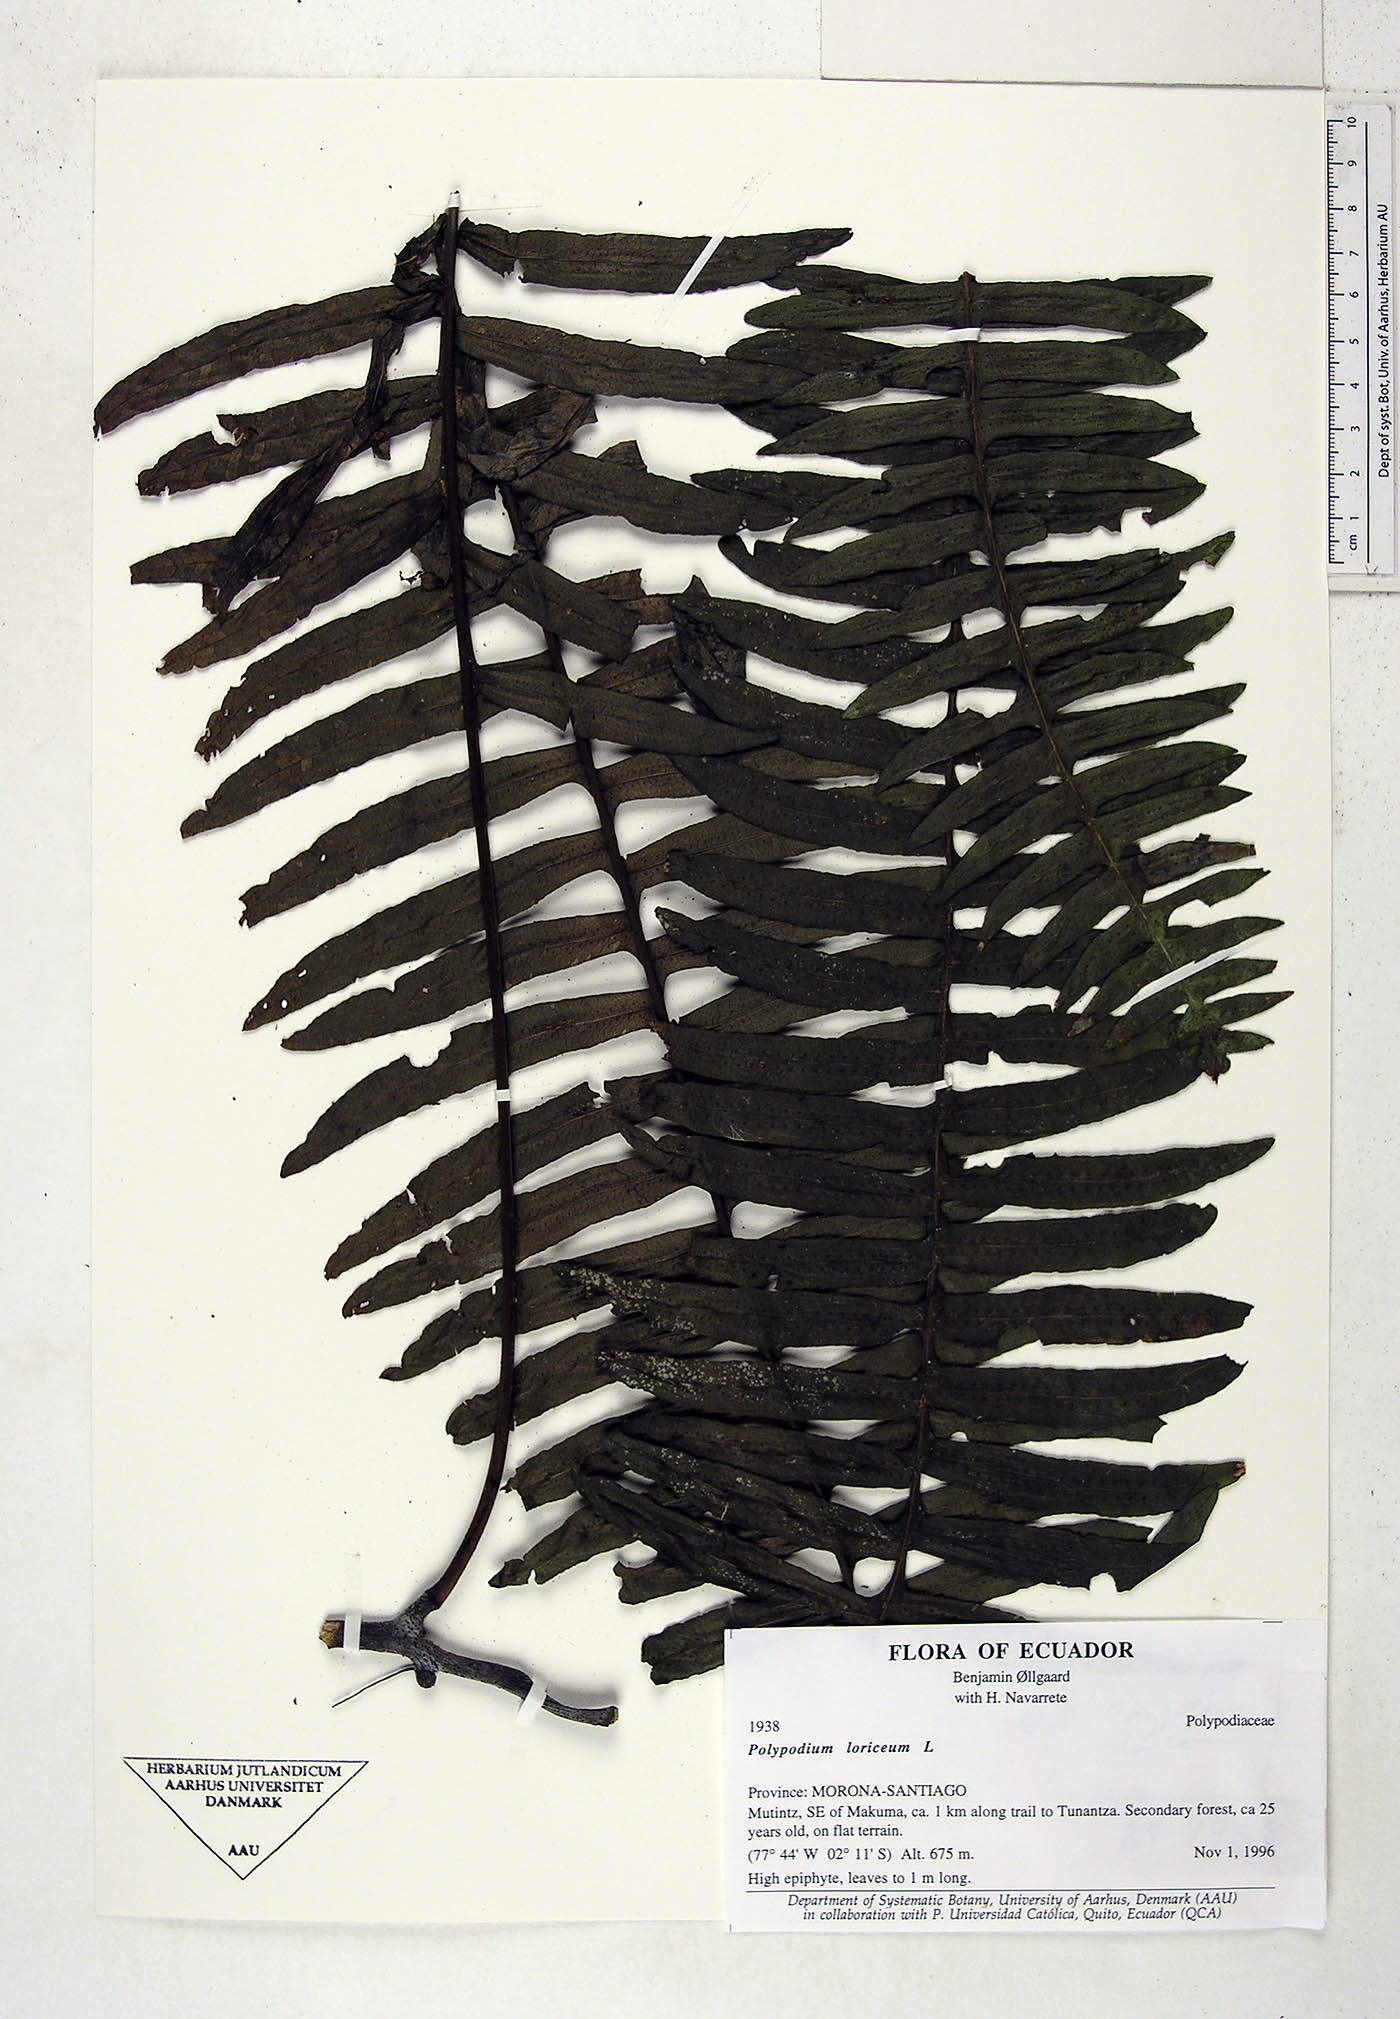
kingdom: Plantae
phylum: Tracheophyta
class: Polypodiopsida
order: Polypodiales
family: Polypodiaceae
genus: Serpocaulon
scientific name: Serpocaulon loriceum
